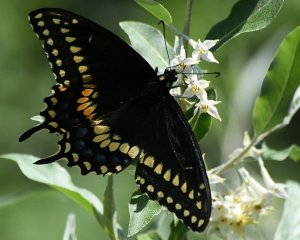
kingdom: Animalia
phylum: Arthropoda
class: Insecta
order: Lepidoptera
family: Papilionidae
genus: Papilio
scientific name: Papilio polyxenes
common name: Black Swallowtail
